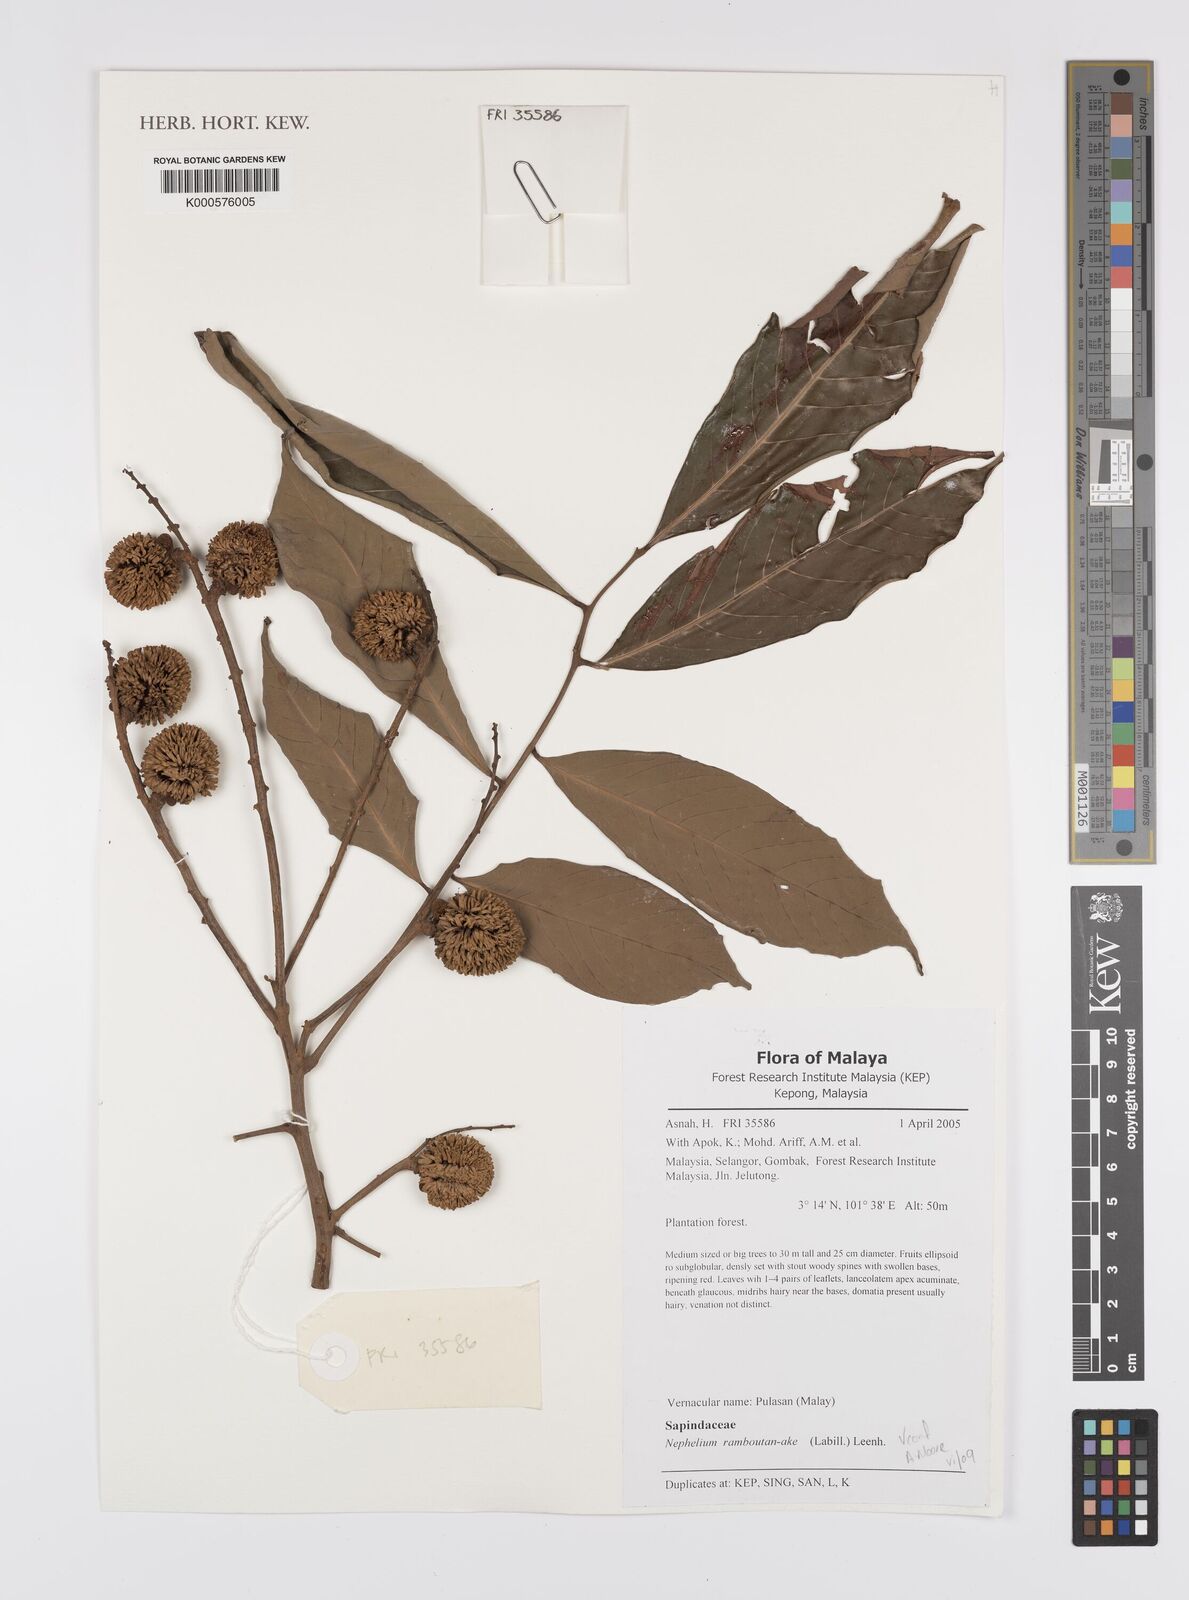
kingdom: Plantae
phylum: Tracheophyta
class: Magnoliopsida
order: Sapindales
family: Sapindaceae
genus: Nephelium
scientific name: Nephelium ramboutan-ake
